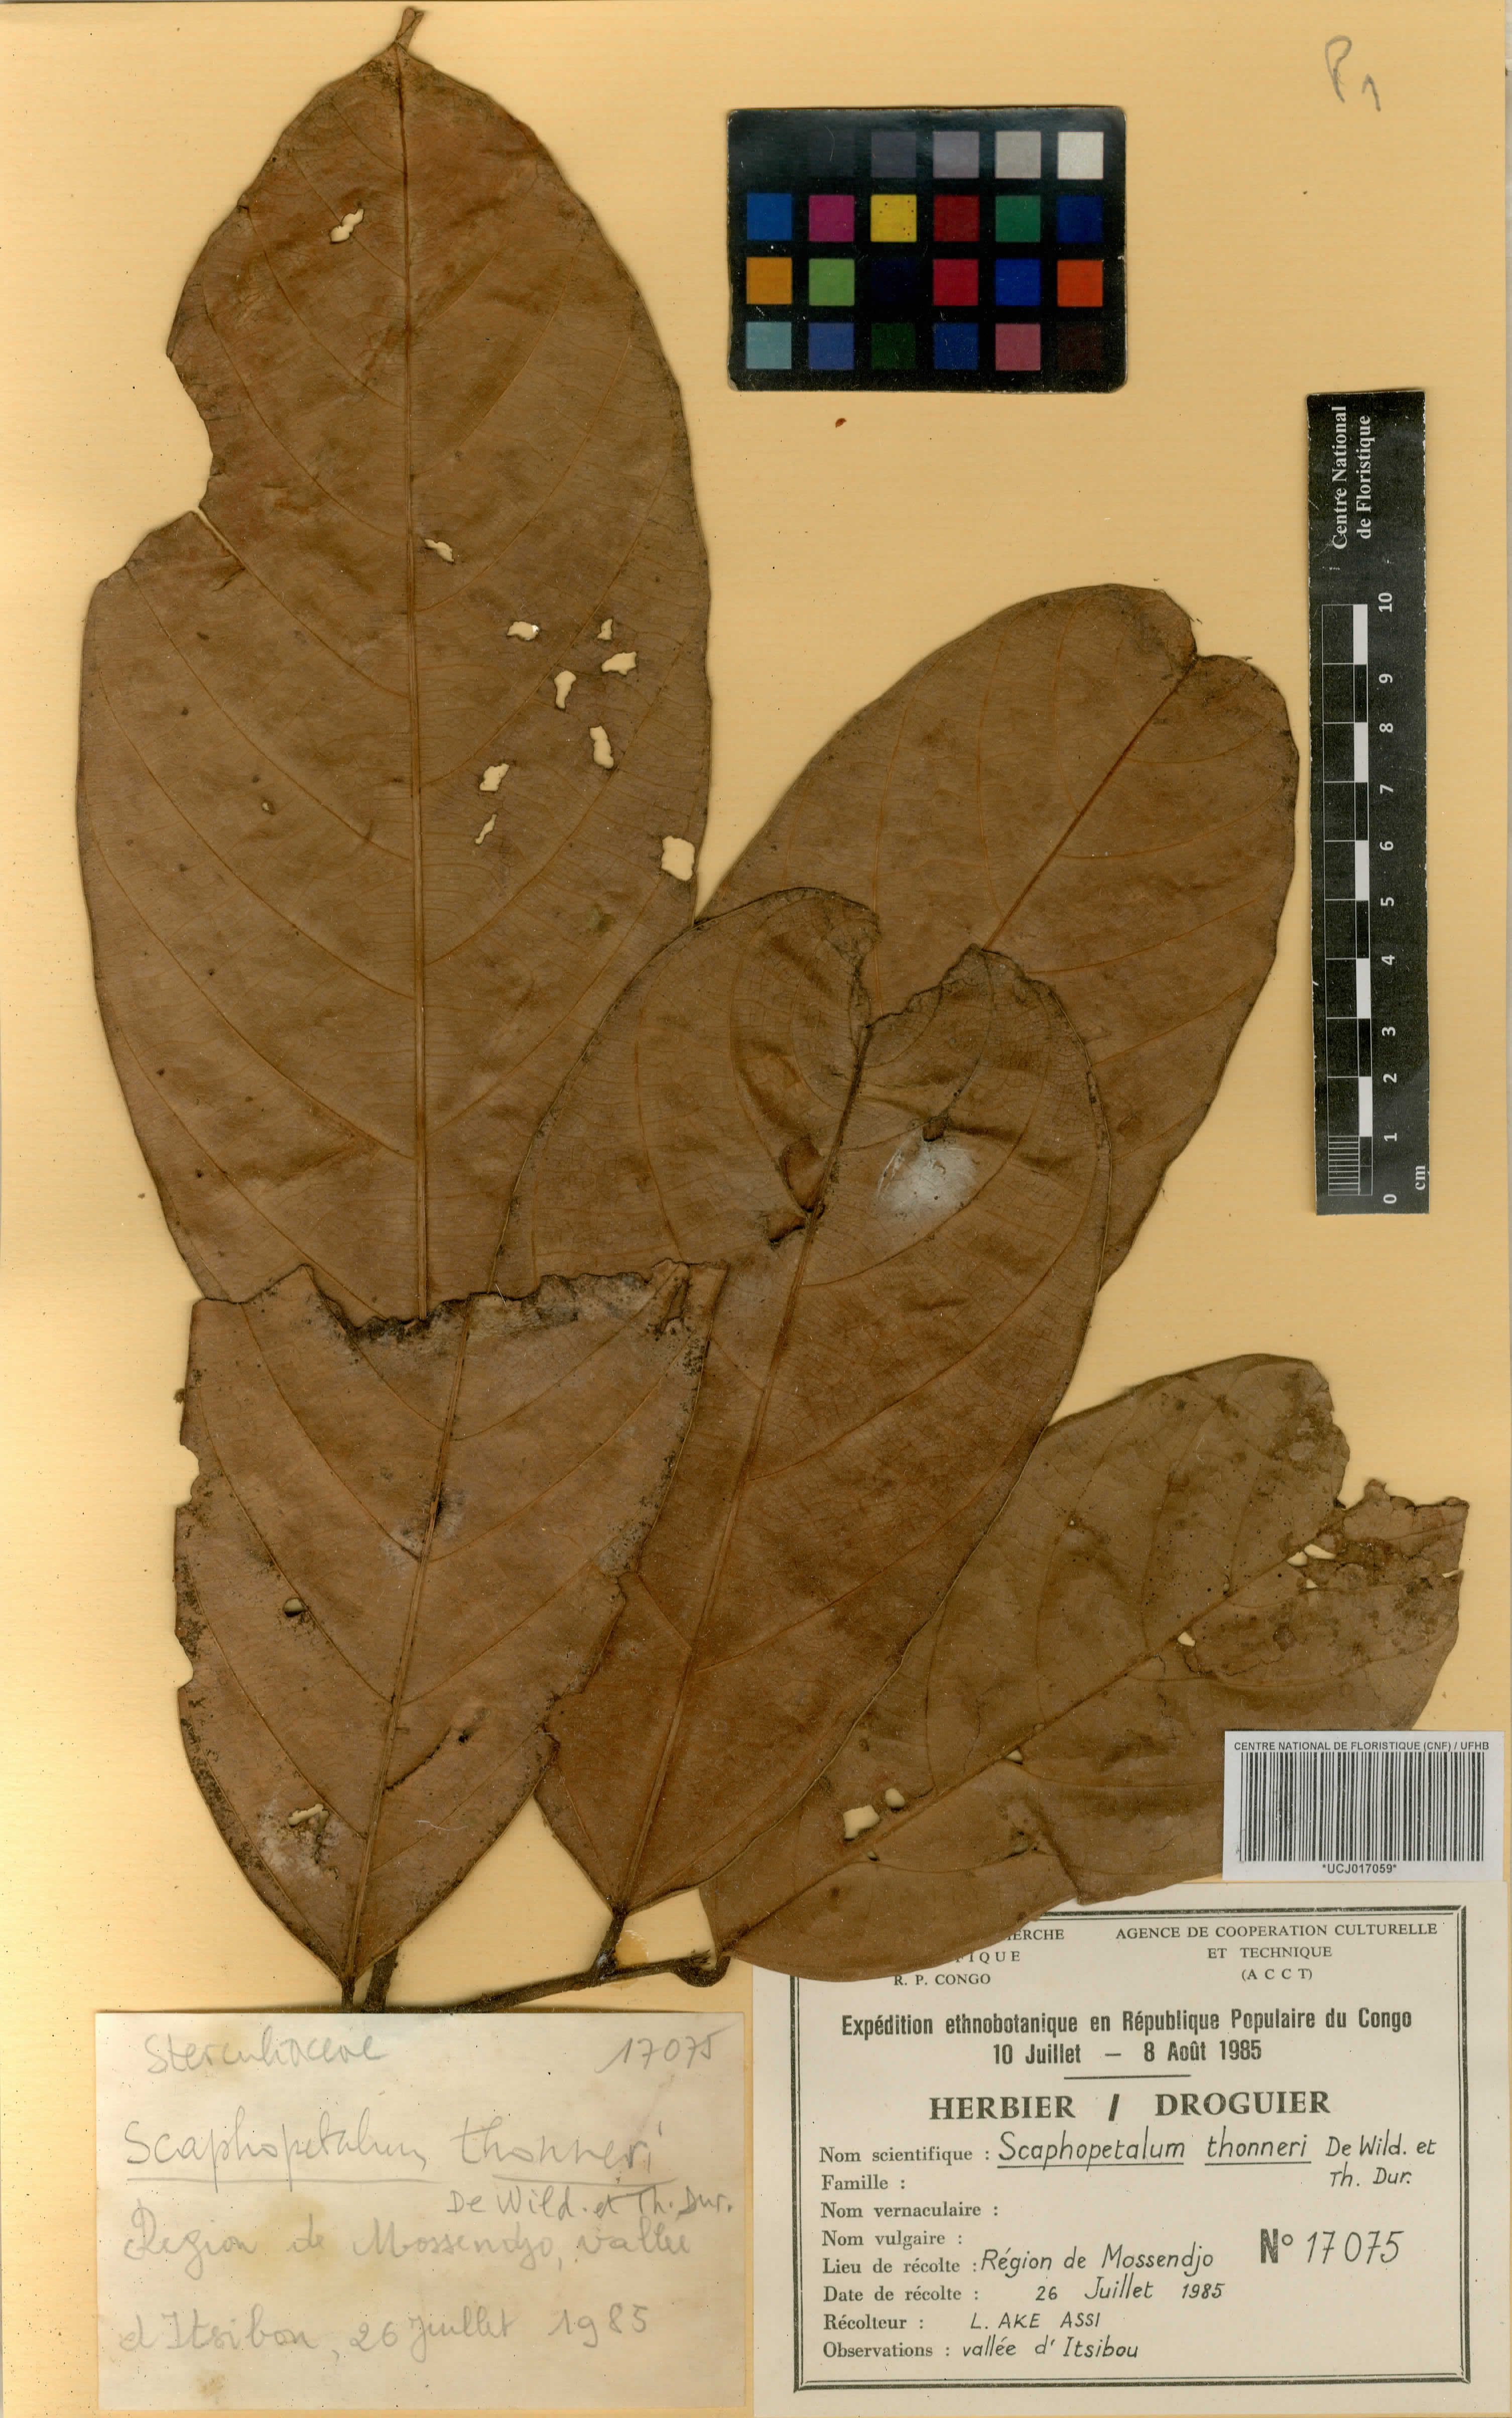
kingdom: Plantae
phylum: Tracheophyta
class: Magnoliopsida
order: Malvales
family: Malvaceae
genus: Scaphopetalum
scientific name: Scaphopetalum thonneri
